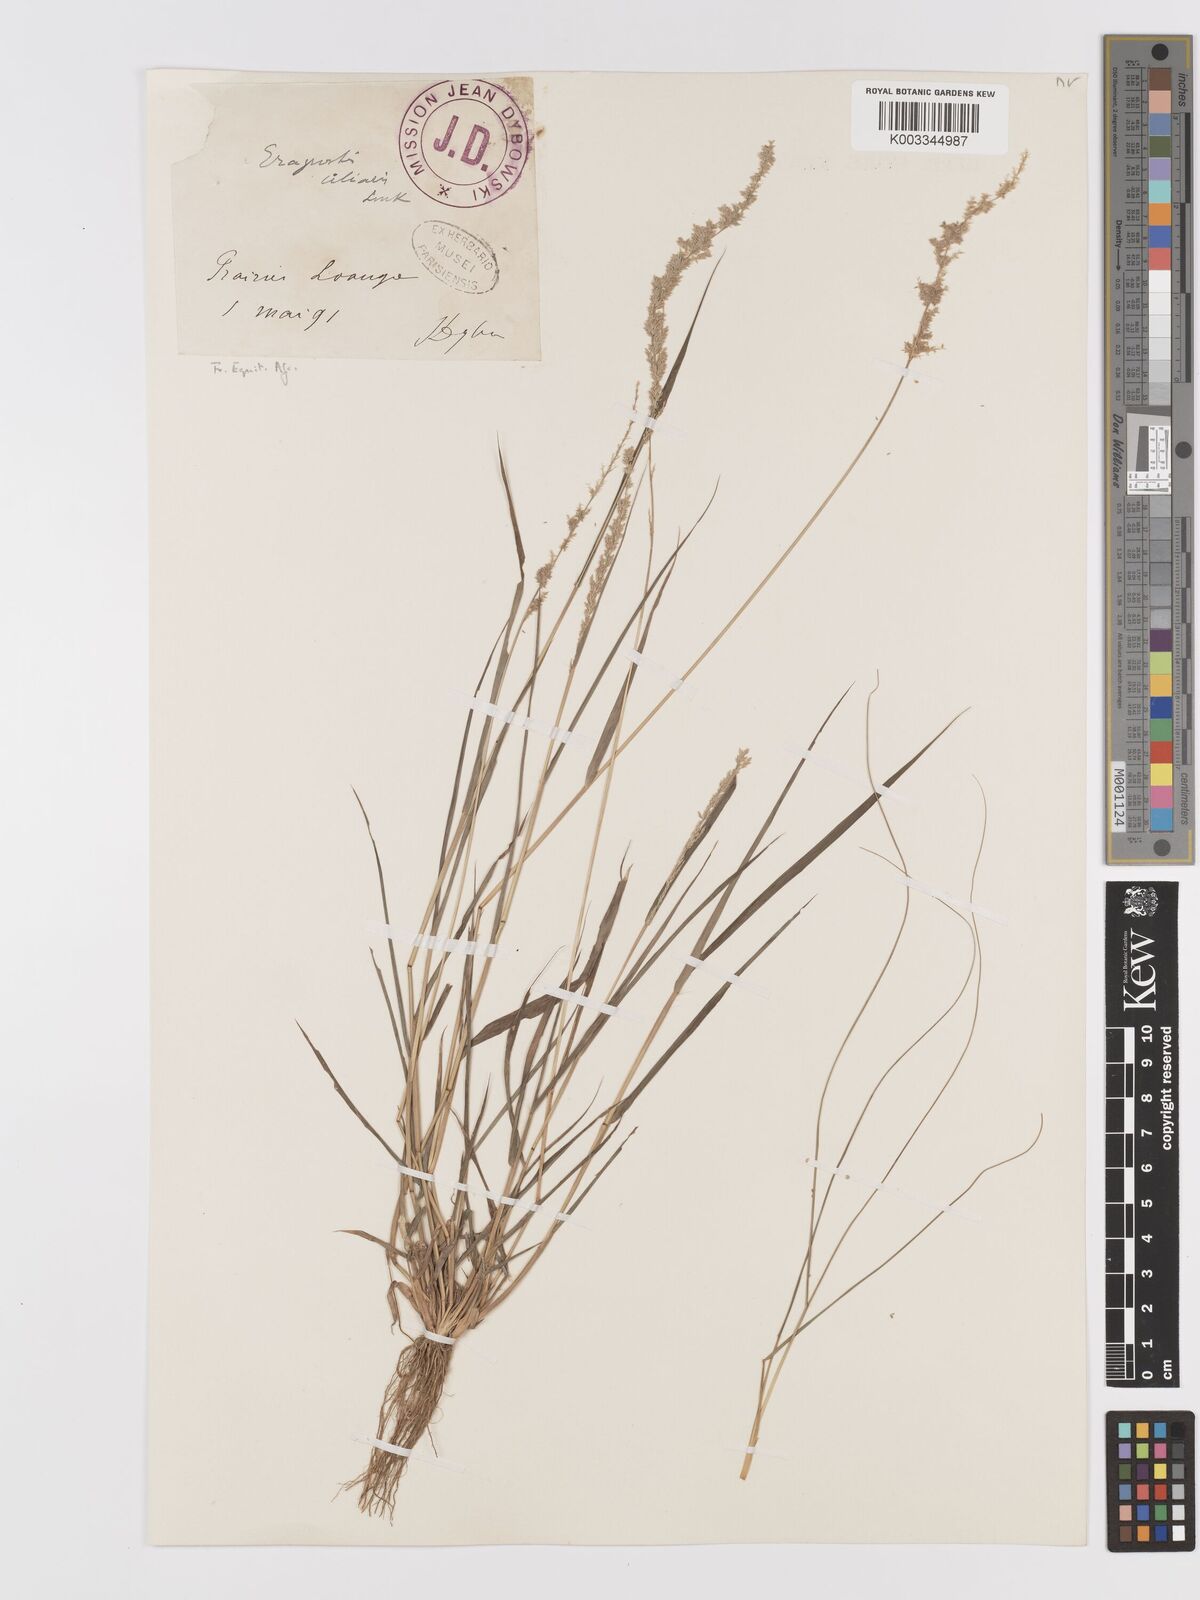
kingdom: Plantae
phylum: Tracheophyta
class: Liliopsida
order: Poales
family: Poaceae
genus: Eragrostis
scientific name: Eragrostis ciliaris
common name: Gophertail lovegrass
